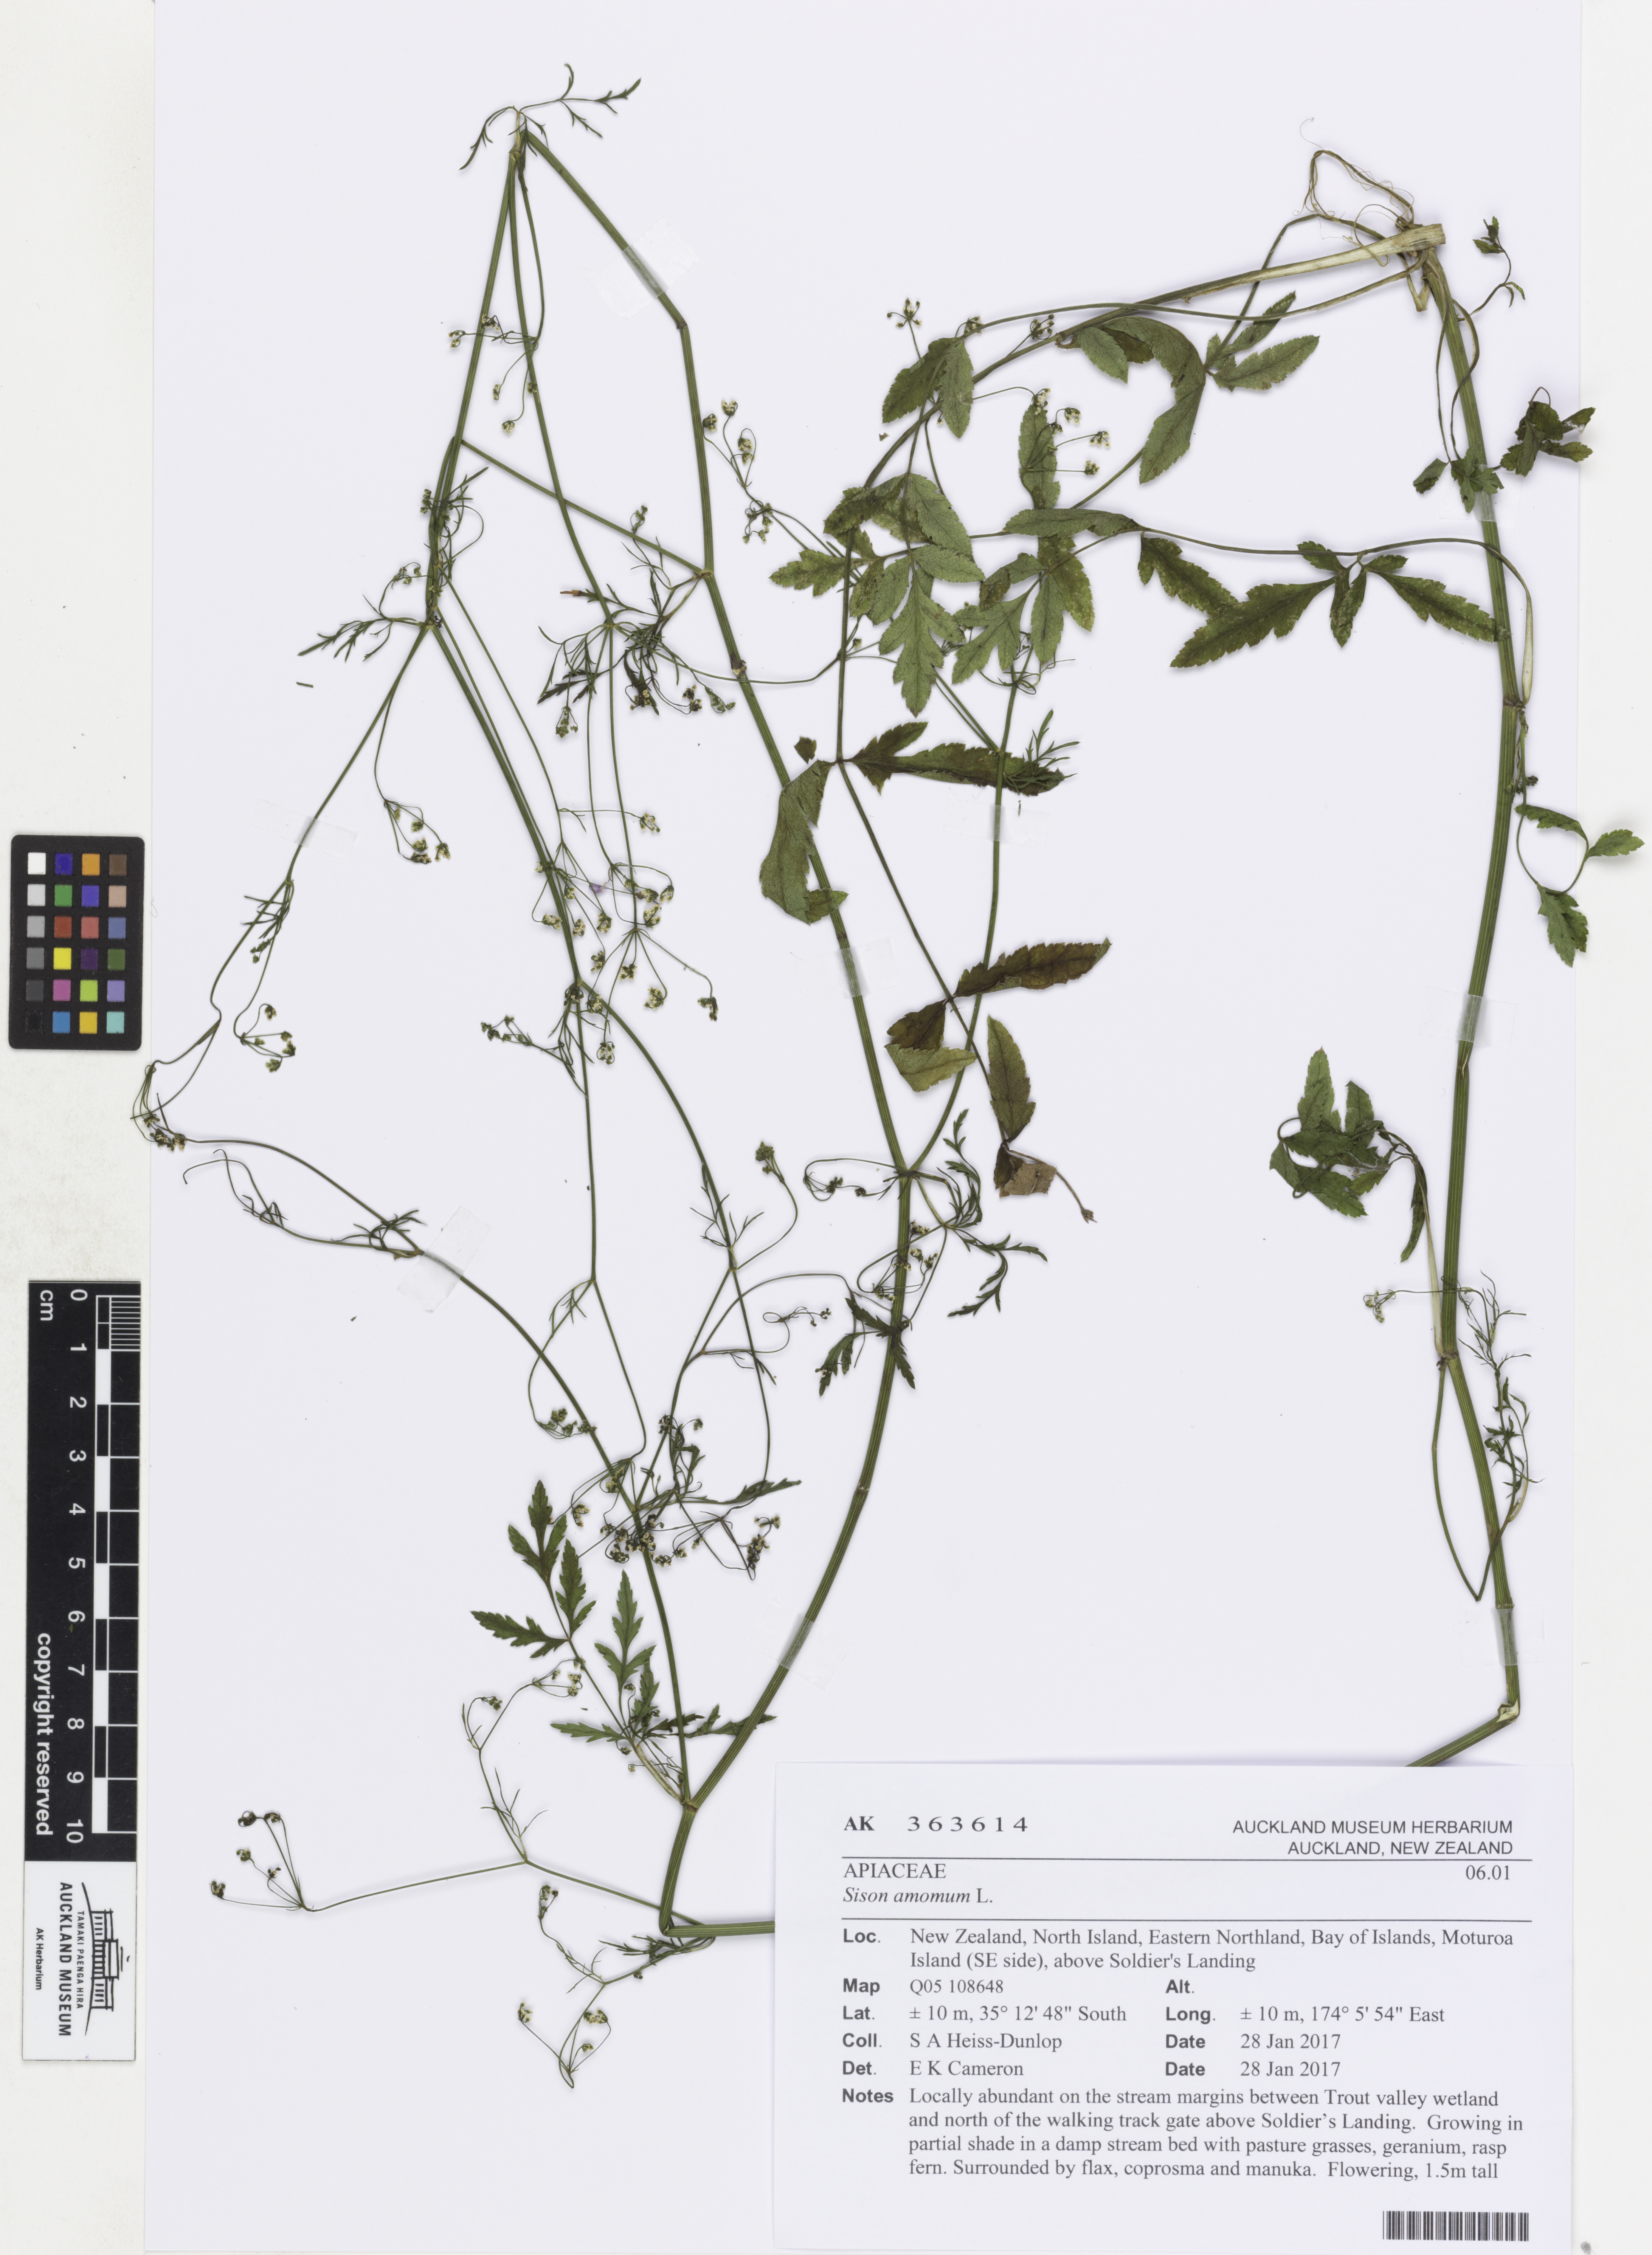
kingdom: Plantae
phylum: Tracheophyta
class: Magnoliopsida
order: Apiales
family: Apiaceae
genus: Sison
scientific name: Sison amomum
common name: Stone-parsley
